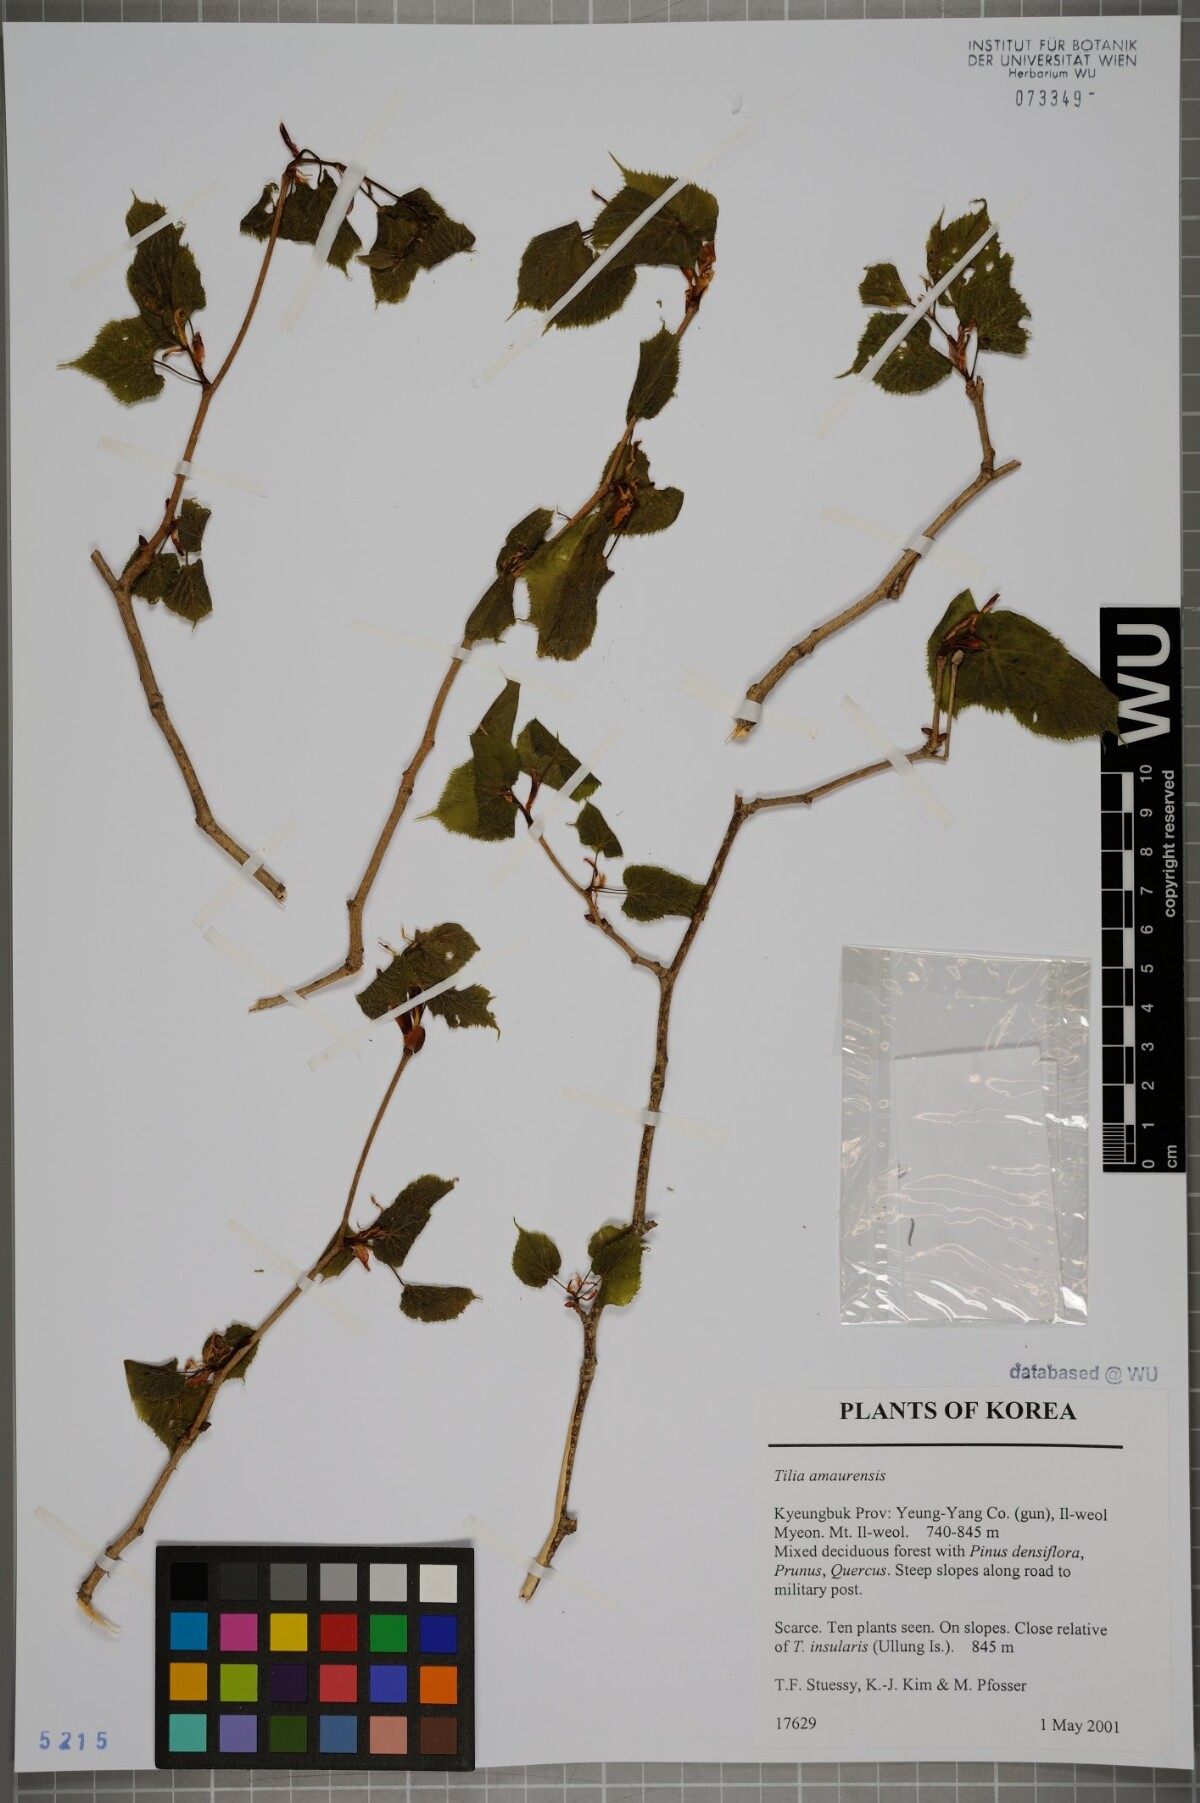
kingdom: Plantae
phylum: Tracheophyta
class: Magnoliopsida
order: Malvales
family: Malvaceae
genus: Tilia
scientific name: Tilia amurensis
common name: Amur lime
